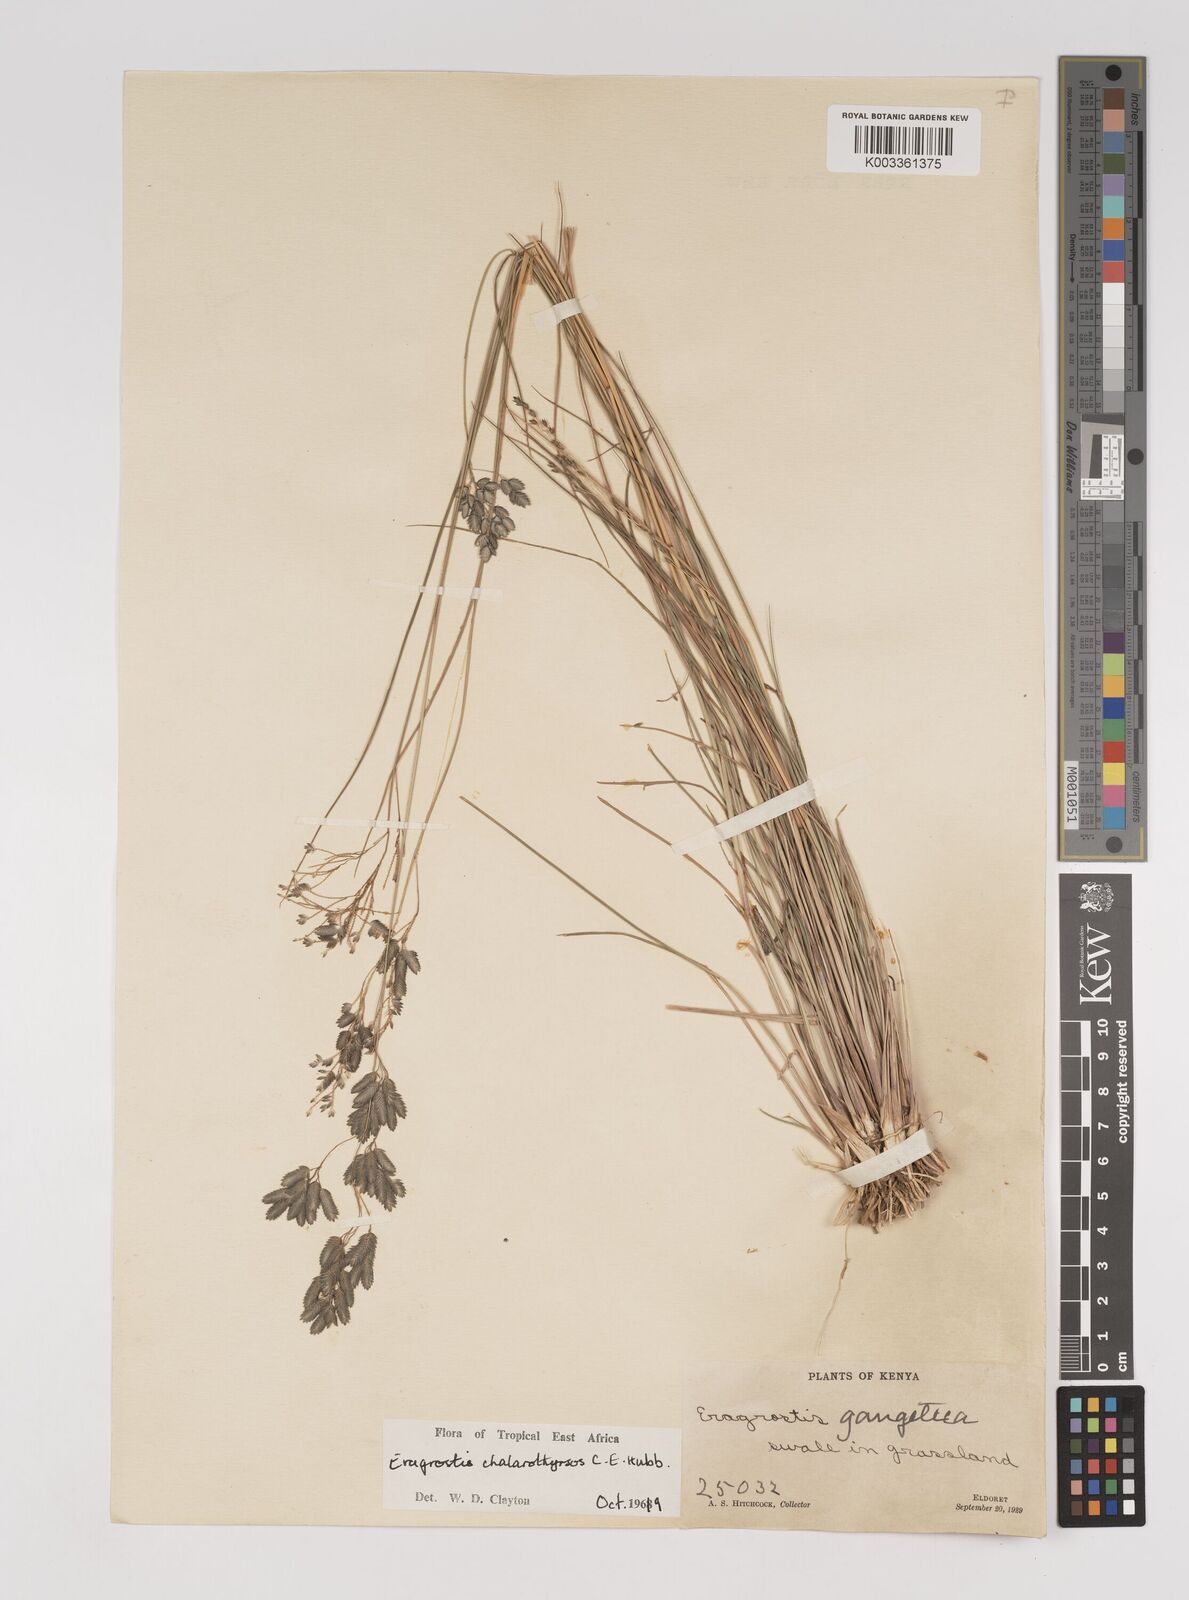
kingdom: Plantae
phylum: Tracheophyta
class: Liliopsida
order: Poales
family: Poaceae
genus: Eragrostis
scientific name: Eragrostis chalarothyrsos
